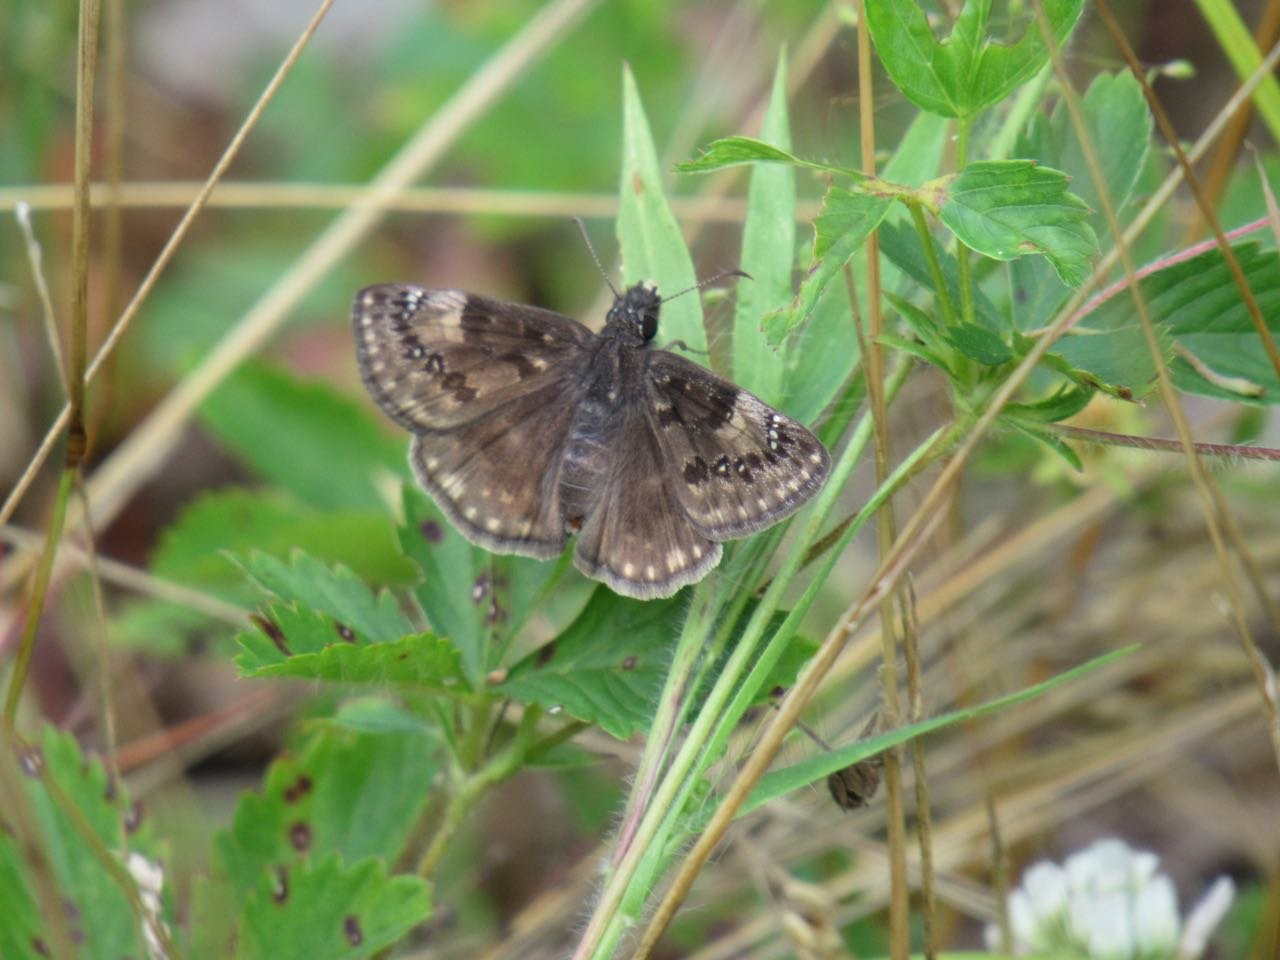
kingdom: Animalia
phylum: Arthropoda
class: Insecta
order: Lepidoptera
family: Hesperiidae
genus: Gesta
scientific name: Gesta
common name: Wild Indigo Duskywing
